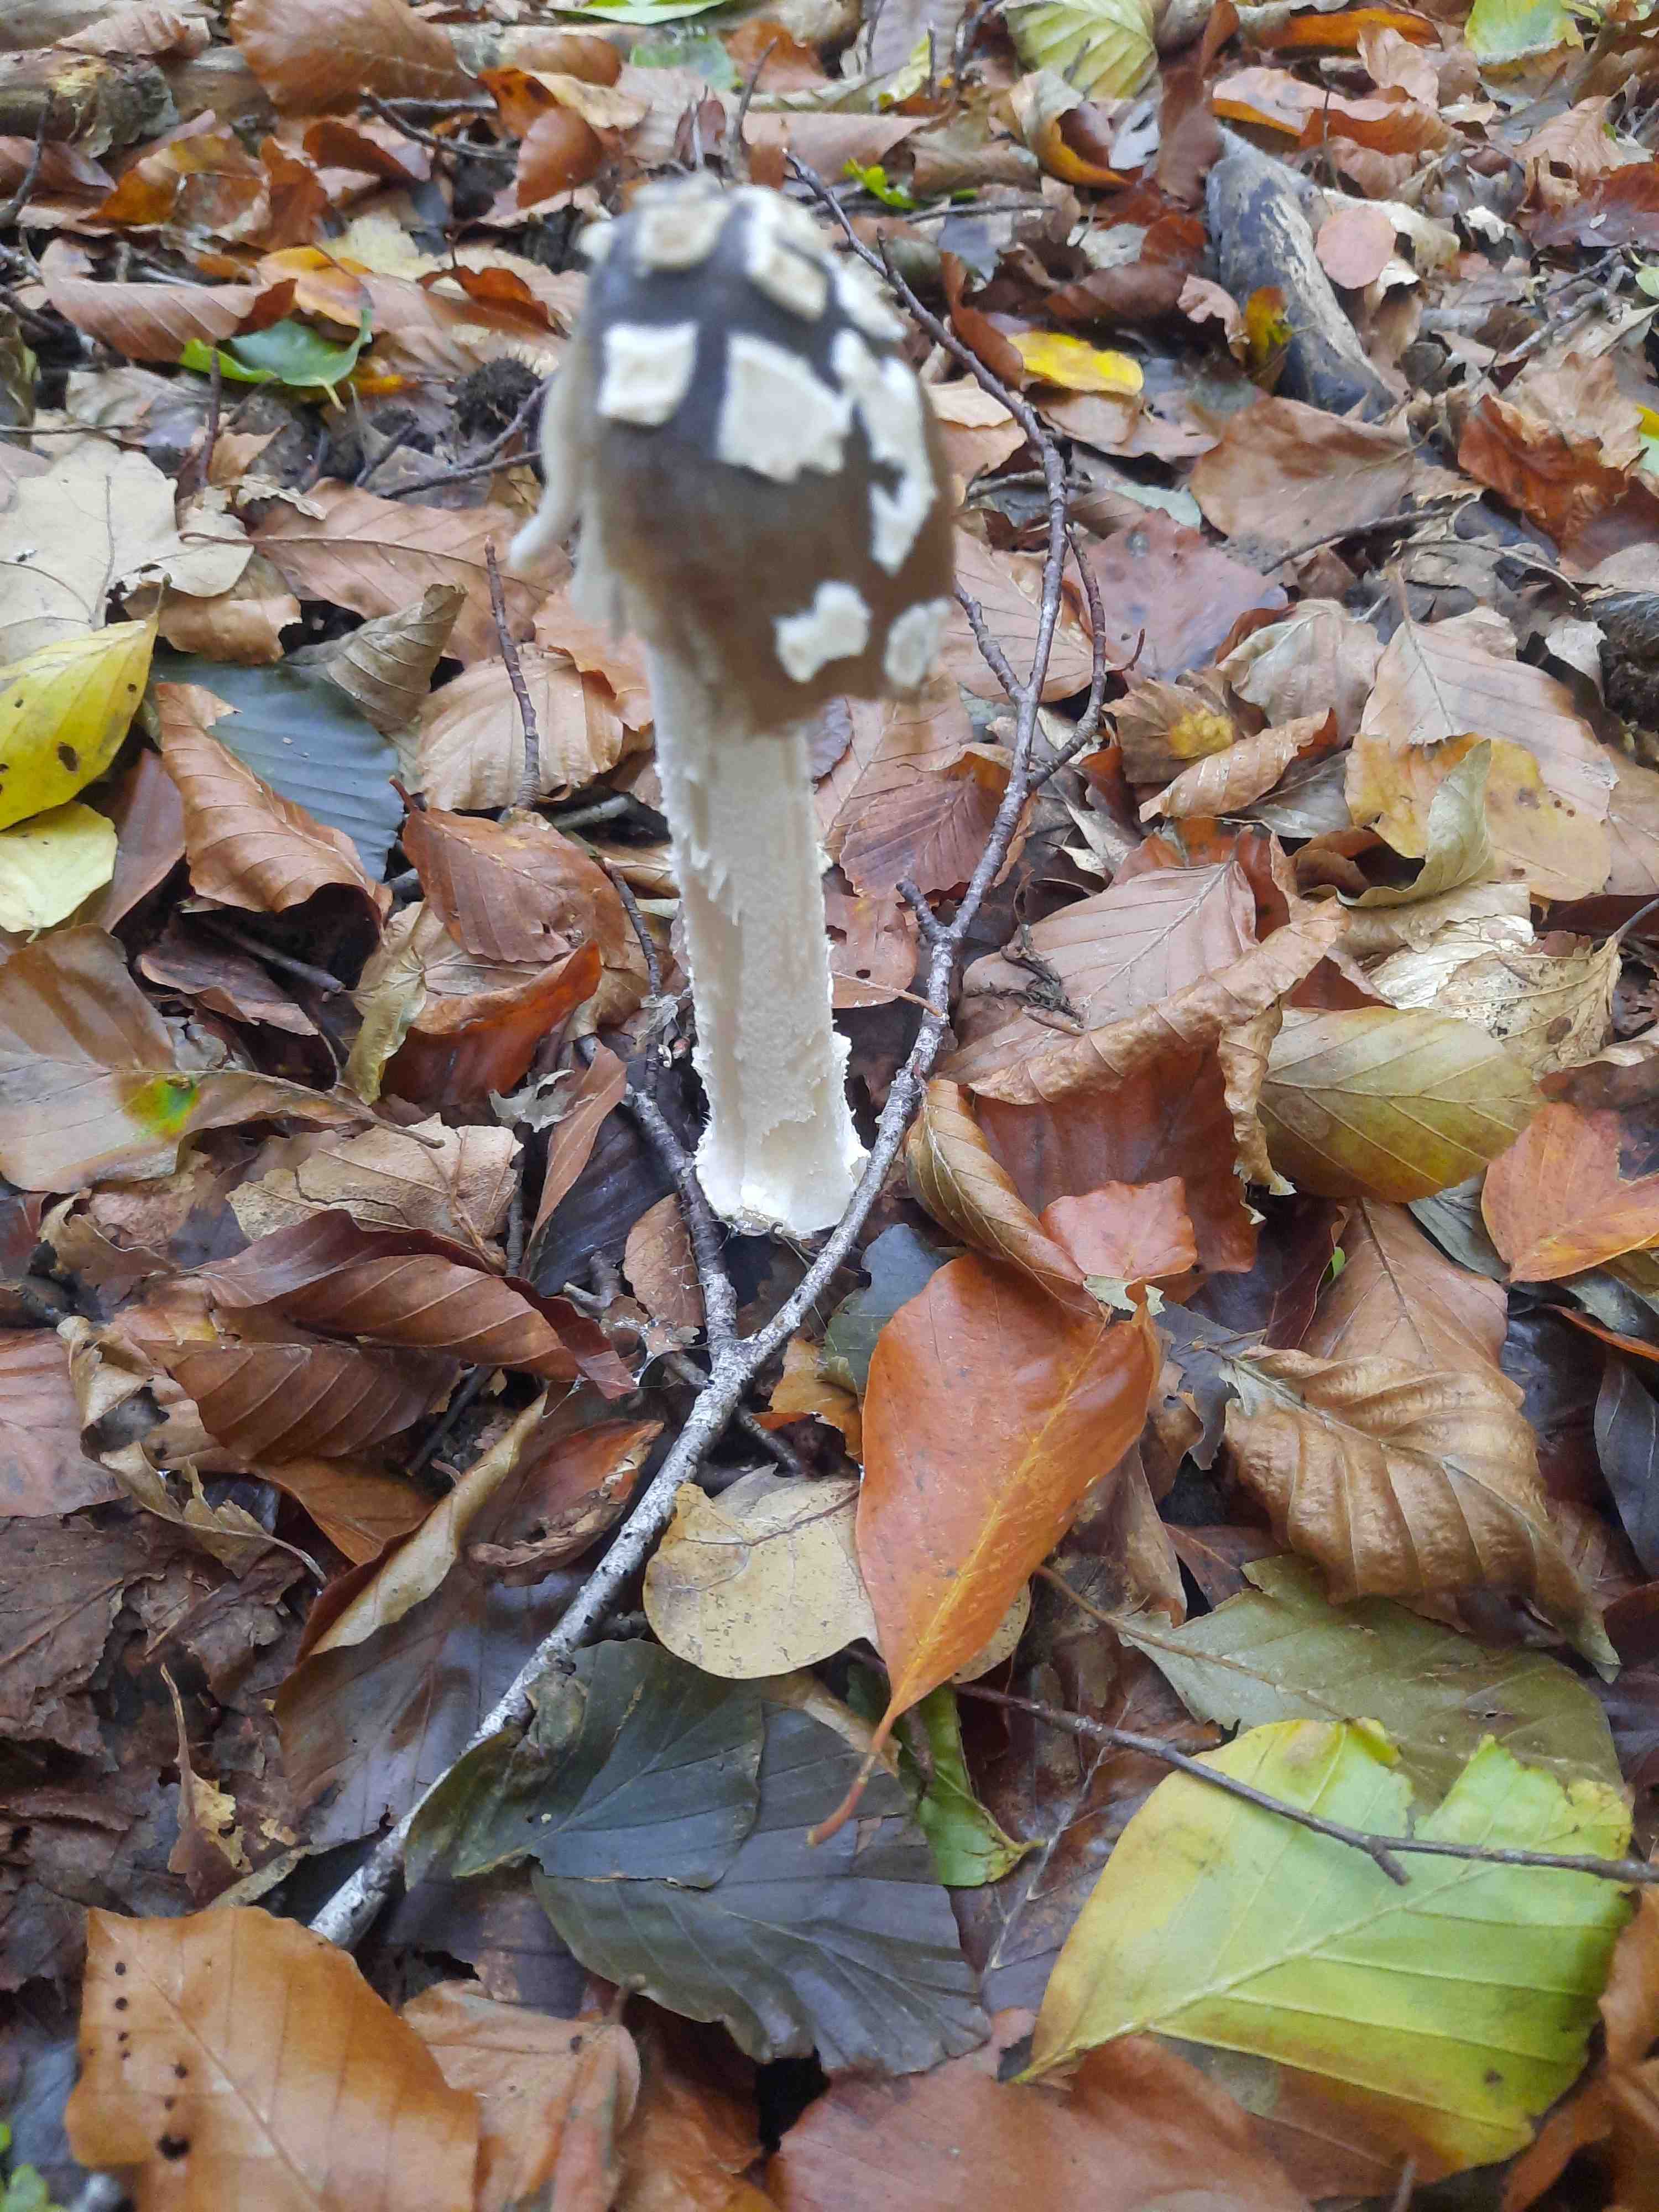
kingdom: Fungi
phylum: Basidiomycota
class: Agaricomycetes
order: Agaricales
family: Psathyrellaceae
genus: Coprinopsis
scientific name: Coprinopsis picacea
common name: skade-blækhat
